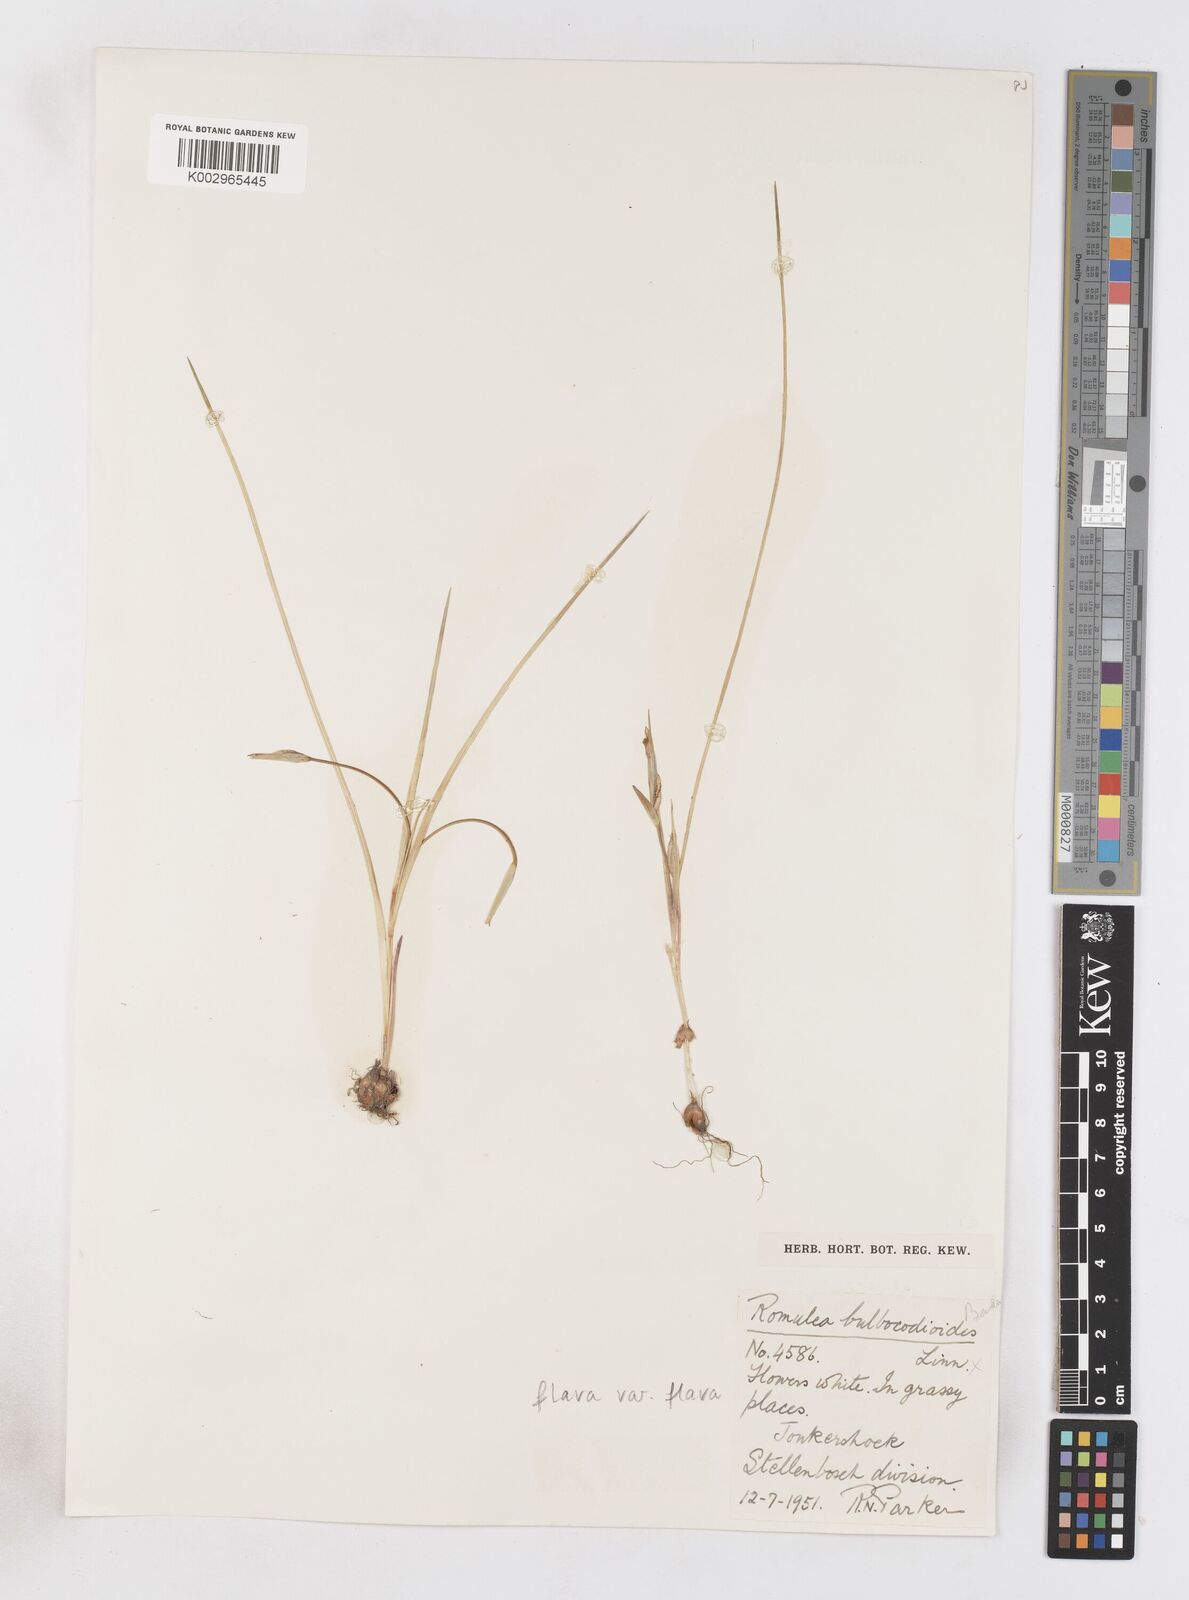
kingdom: Plantae
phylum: Tracheophyta
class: Liliopsida
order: Asparagales
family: Iridaceae
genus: Romulea
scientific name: Romulea flava
